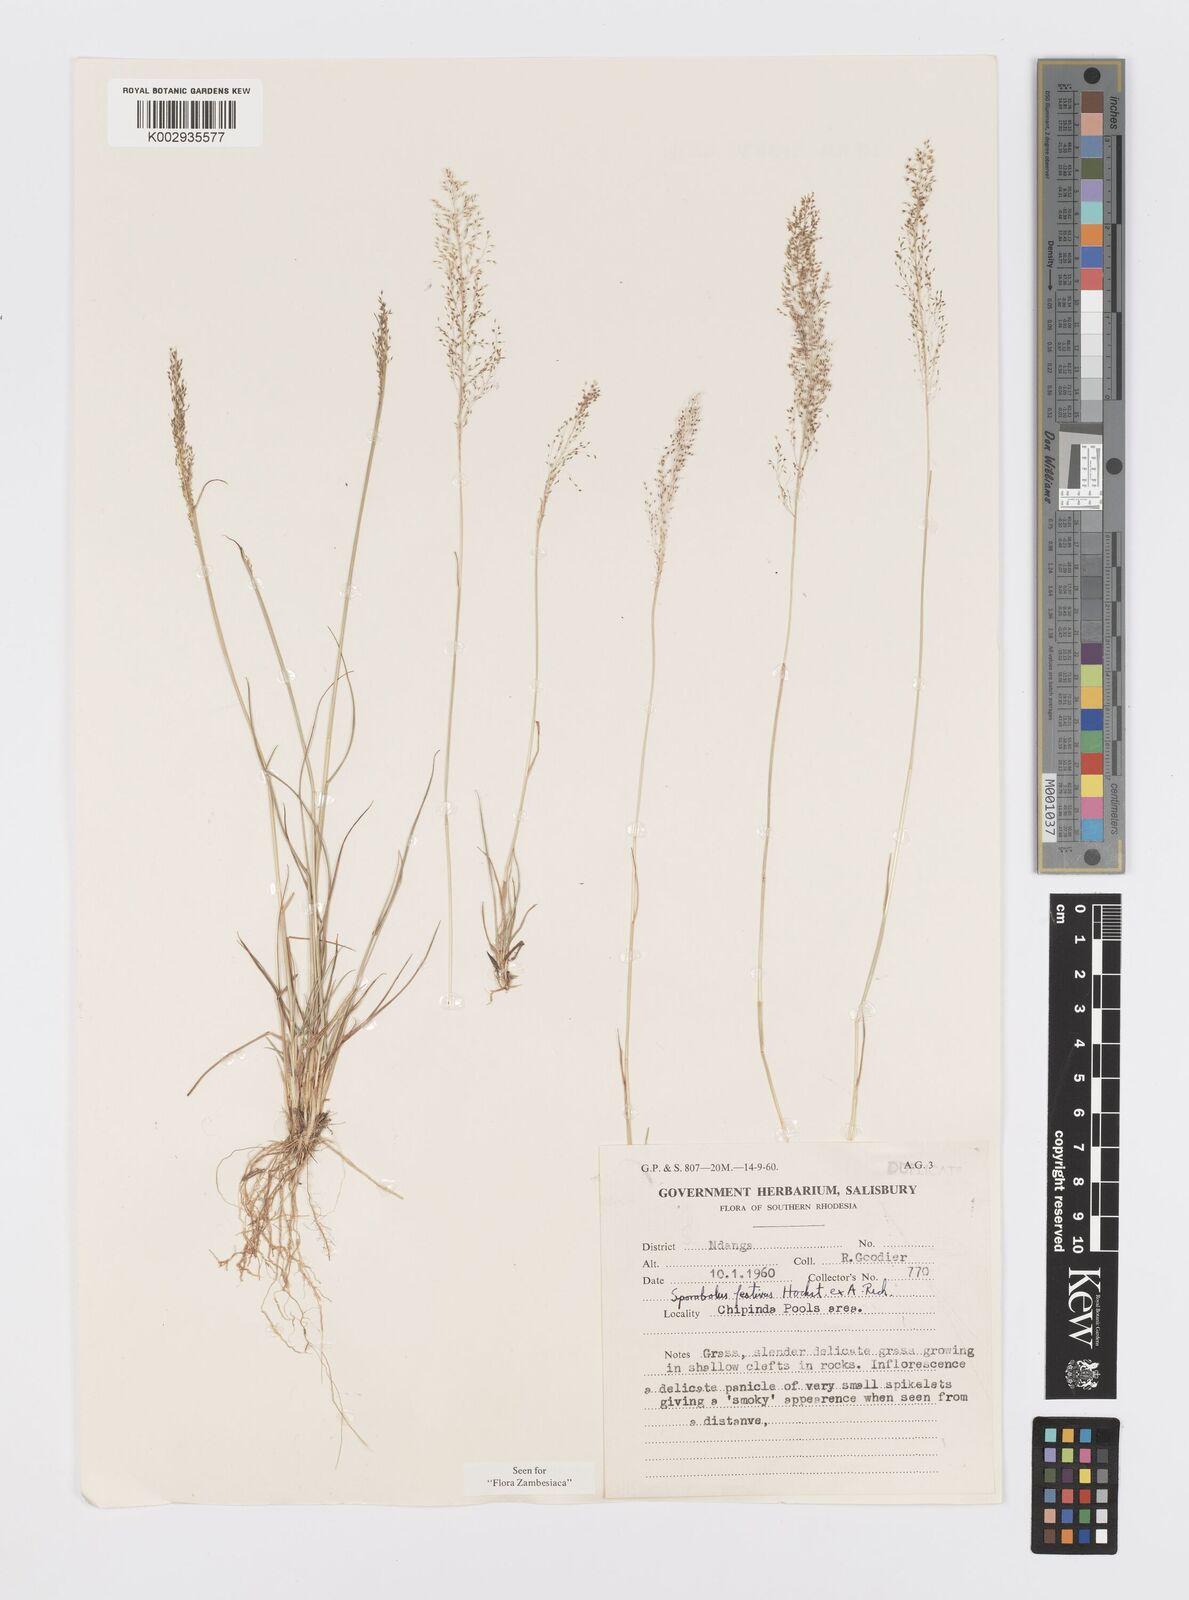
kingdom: Plantae
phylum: Tracheophyta
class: Liliopsida
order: Poales
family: Poaceae
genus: Sporobolus
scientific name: Sporobolus festivus
